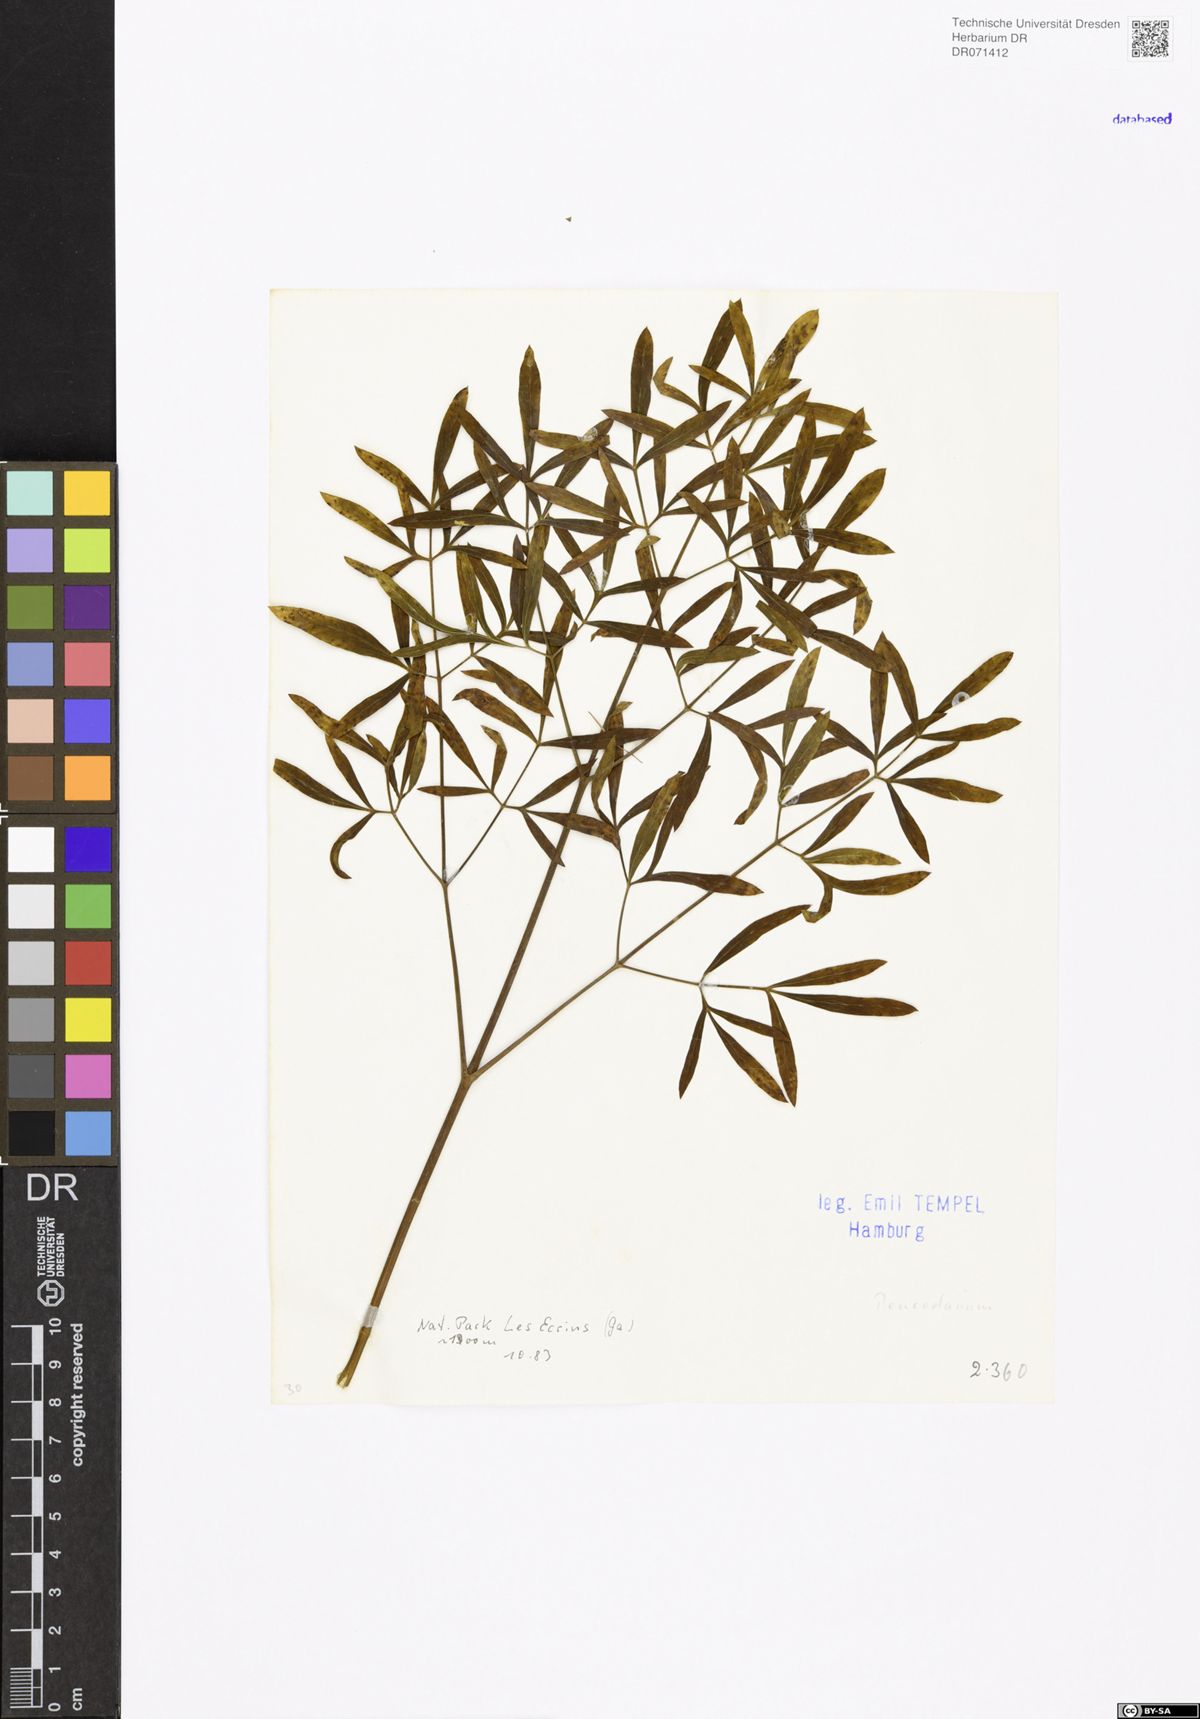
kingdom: Plantae
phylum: Tracheophyta
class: Magnoliopsida
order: Apiales
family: Apiaceae
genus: Peucedanum
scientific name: Peucedanum
